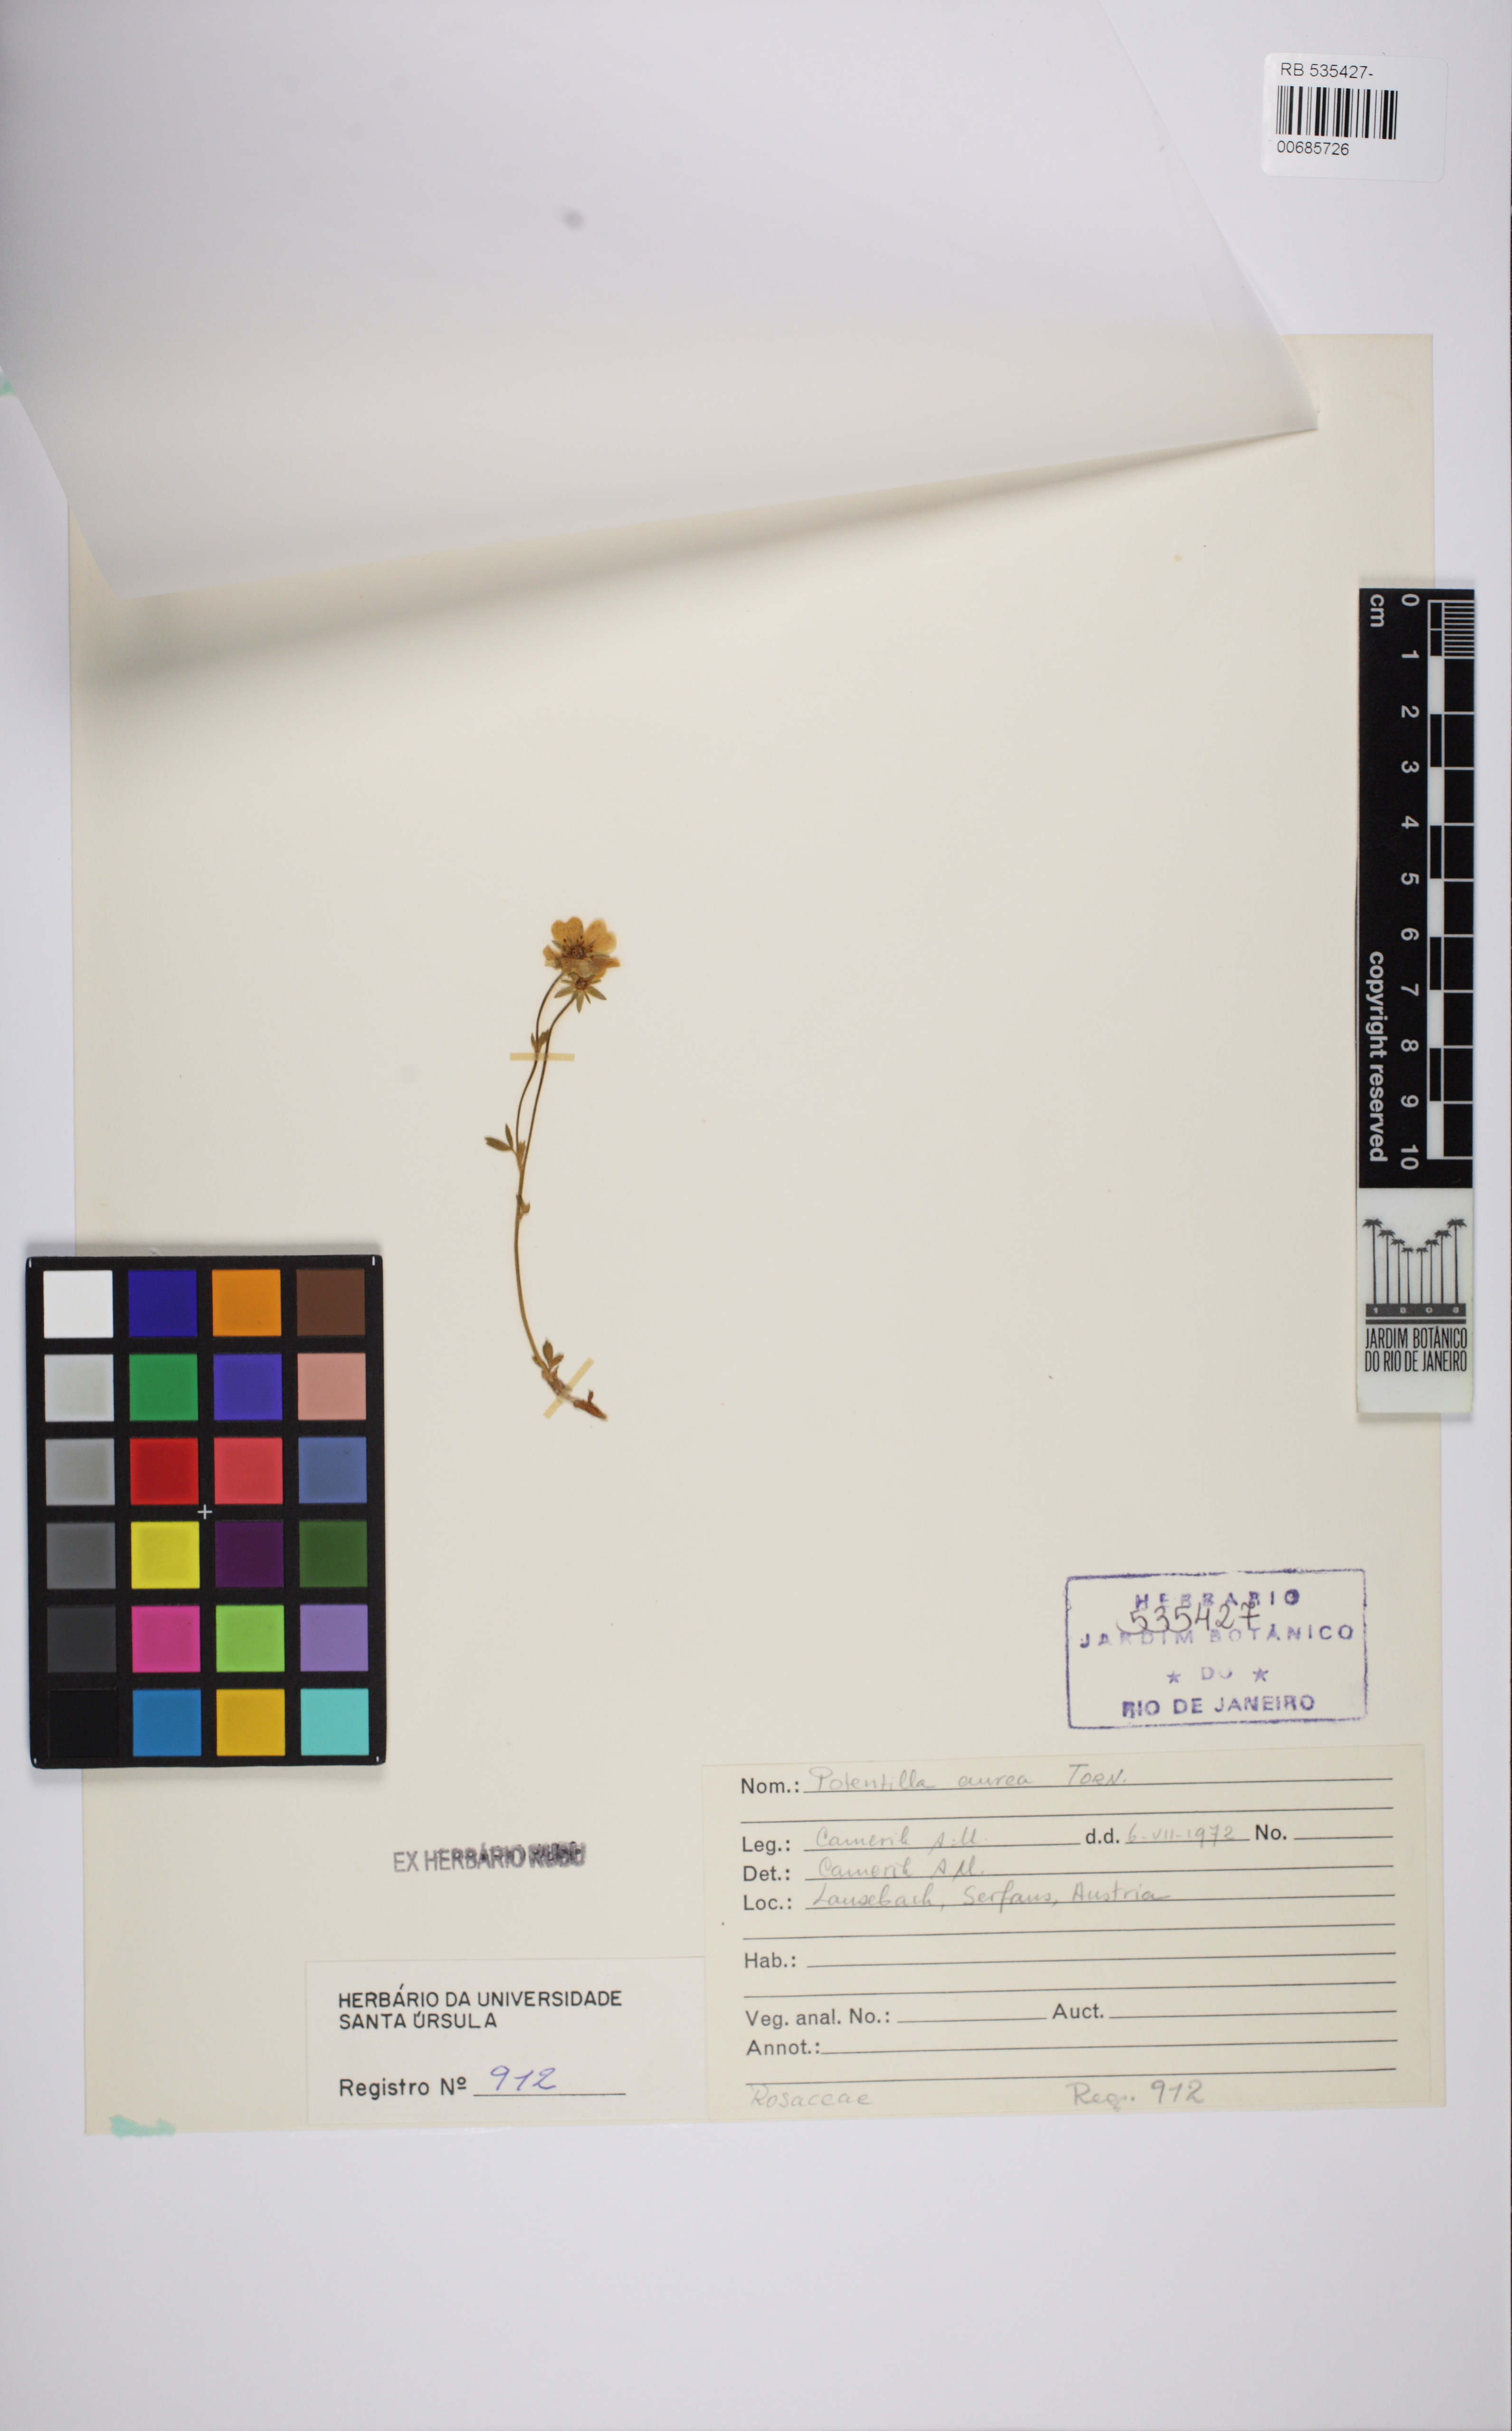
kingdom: Plantae
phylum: Tracheophyta
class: Magnoliopsida
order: Rosales
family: Rosaceae
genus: Potentilla
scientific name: Potentilla aurea
